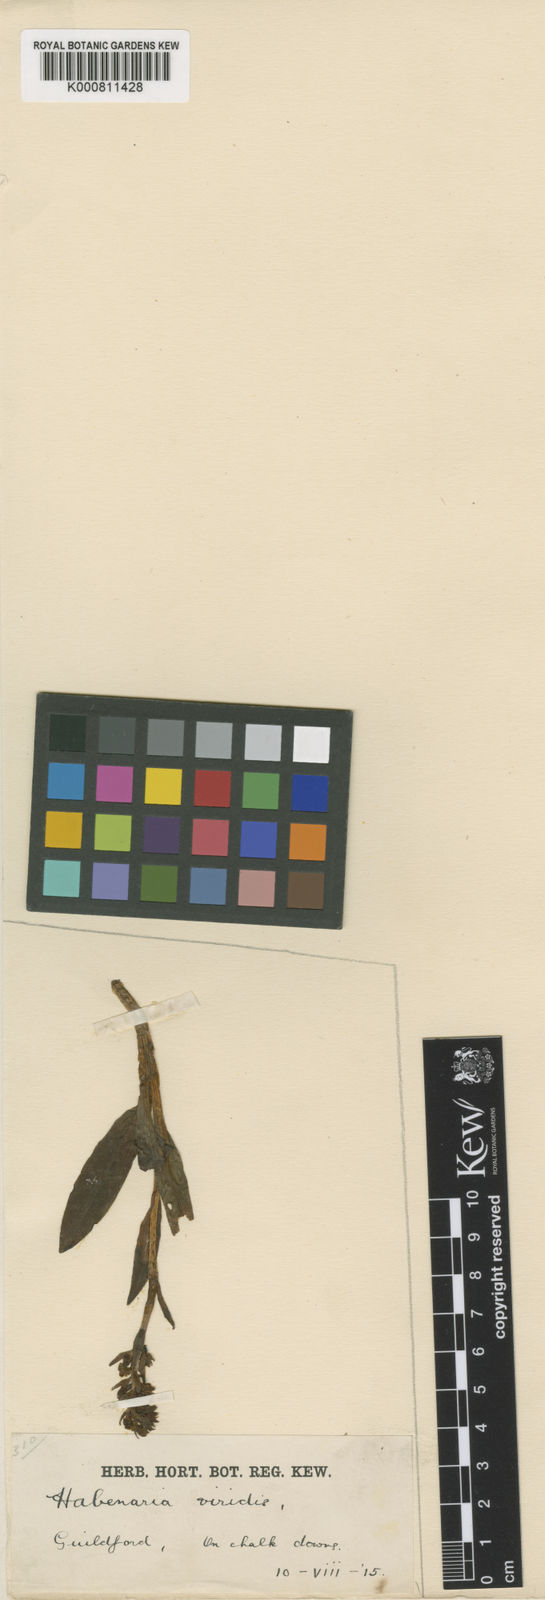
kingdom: Plantae
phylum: Tracheophyta
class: Liliopsida
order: Asparagales
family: Orchidaceae
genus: Dactylorhiza
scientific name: Dactylorhiza viridis
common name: Longbract frog orchid
